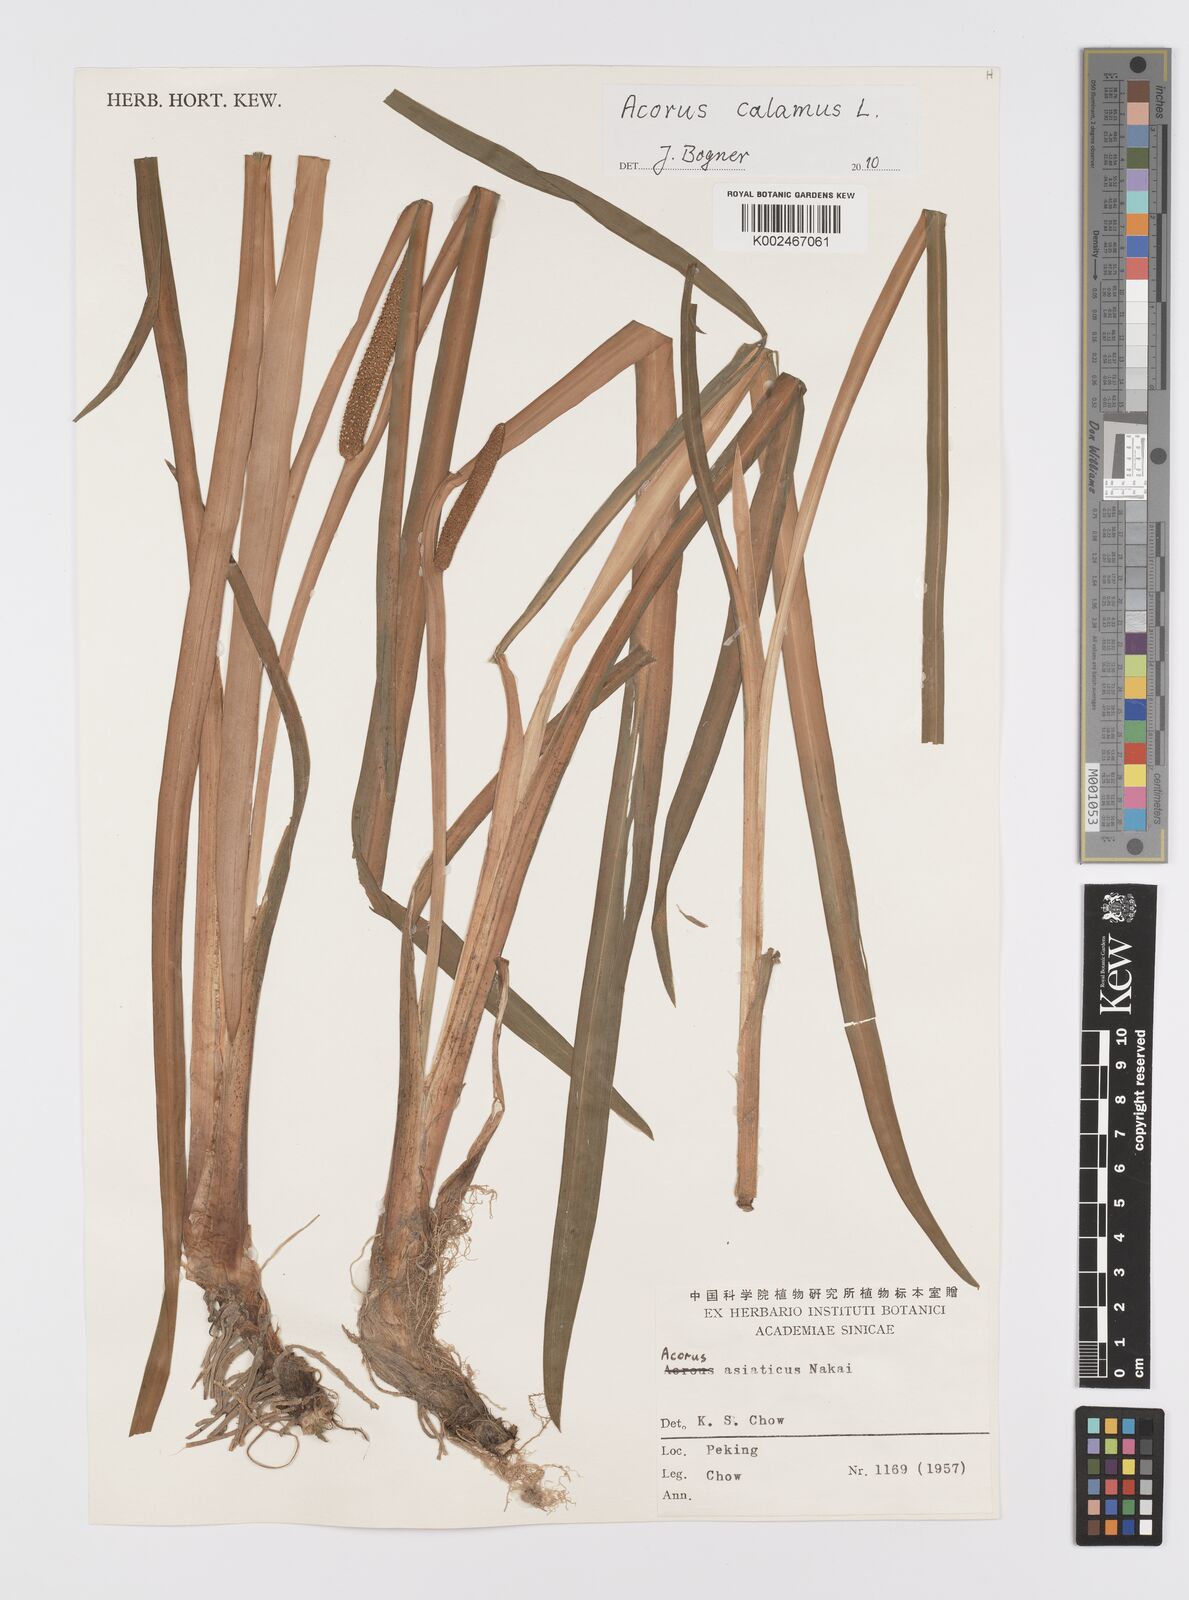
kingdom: Plantae
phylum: Tracheophyta
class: Liliopsida
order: Acorales
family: Acoraceae
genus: Acorus
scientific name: Acorus calamus
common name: Sweet-flag
